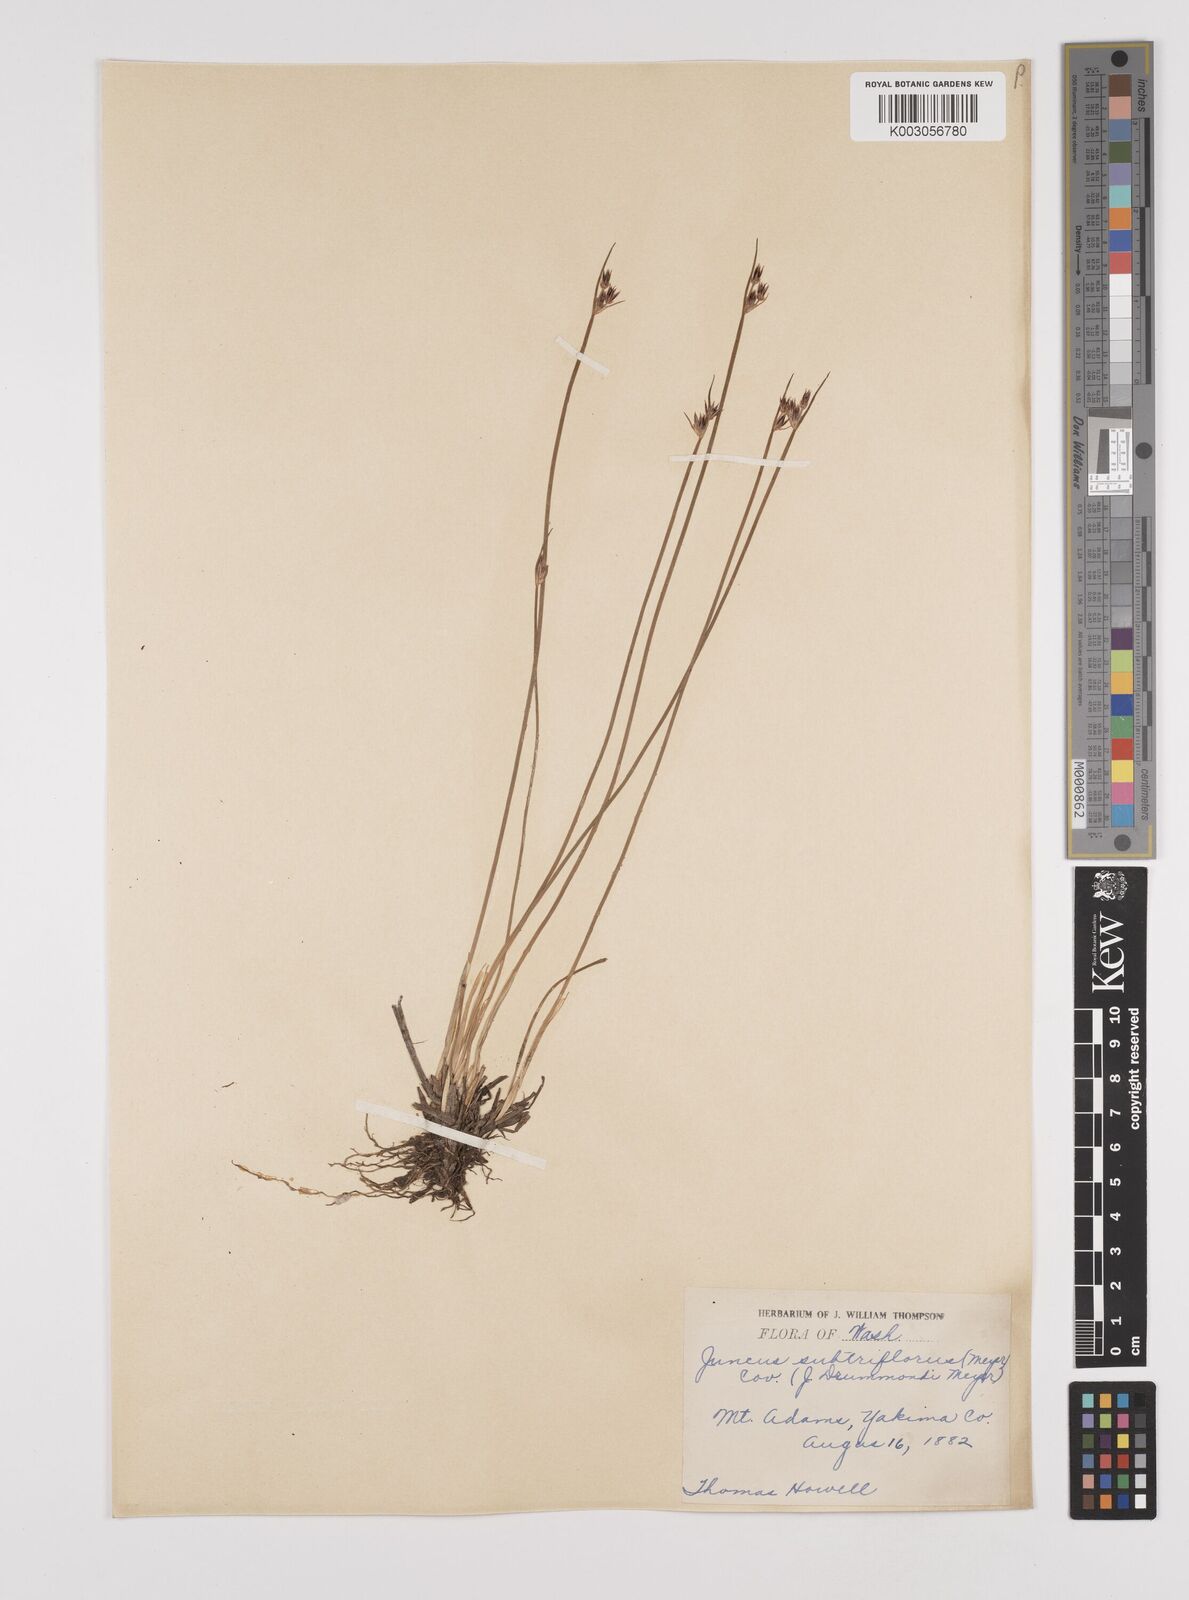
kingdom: Plantae
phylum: Tracheophyta
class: Liliopsida
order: Poales
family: Juncaceae
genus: Juncus
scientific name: Juncus drummondii
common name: Drummond's rush
